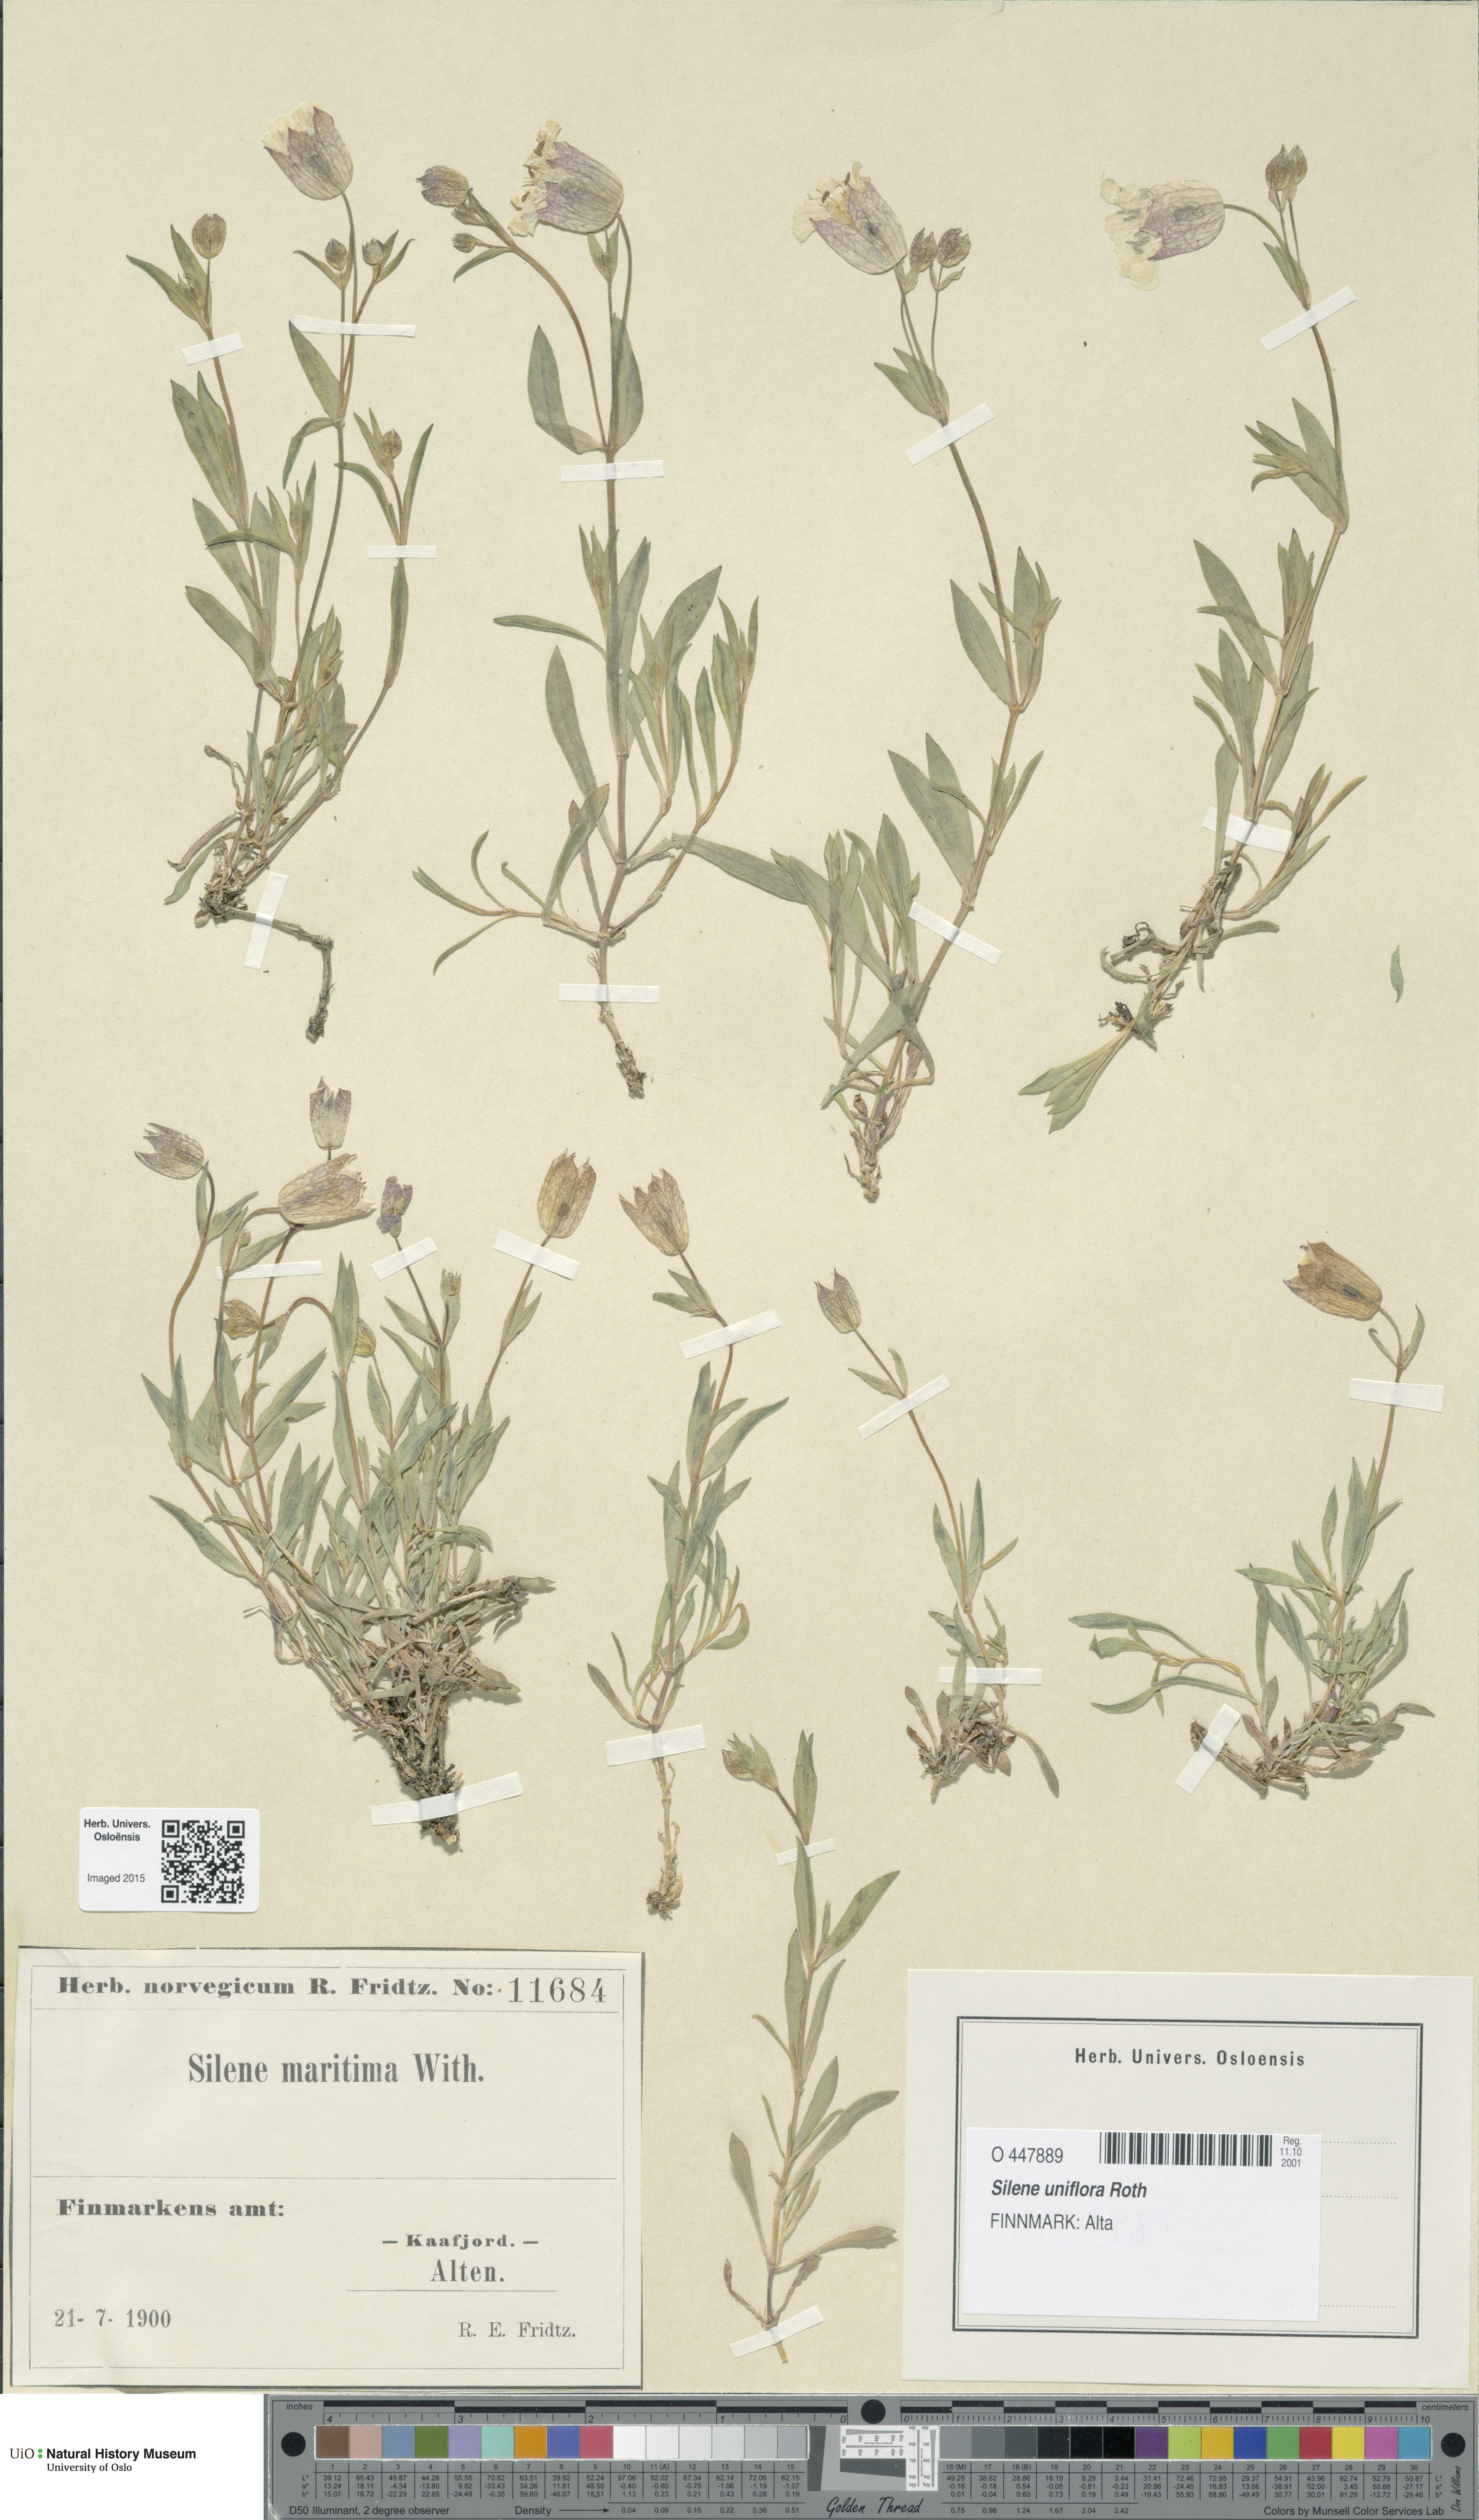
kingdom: Plantae
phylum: Tracheophyta
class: Magnoliopsida
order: Caryophyllales
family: Caryophyllaceae
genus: Silene
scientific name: Silene uniflora
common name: Sea campion
